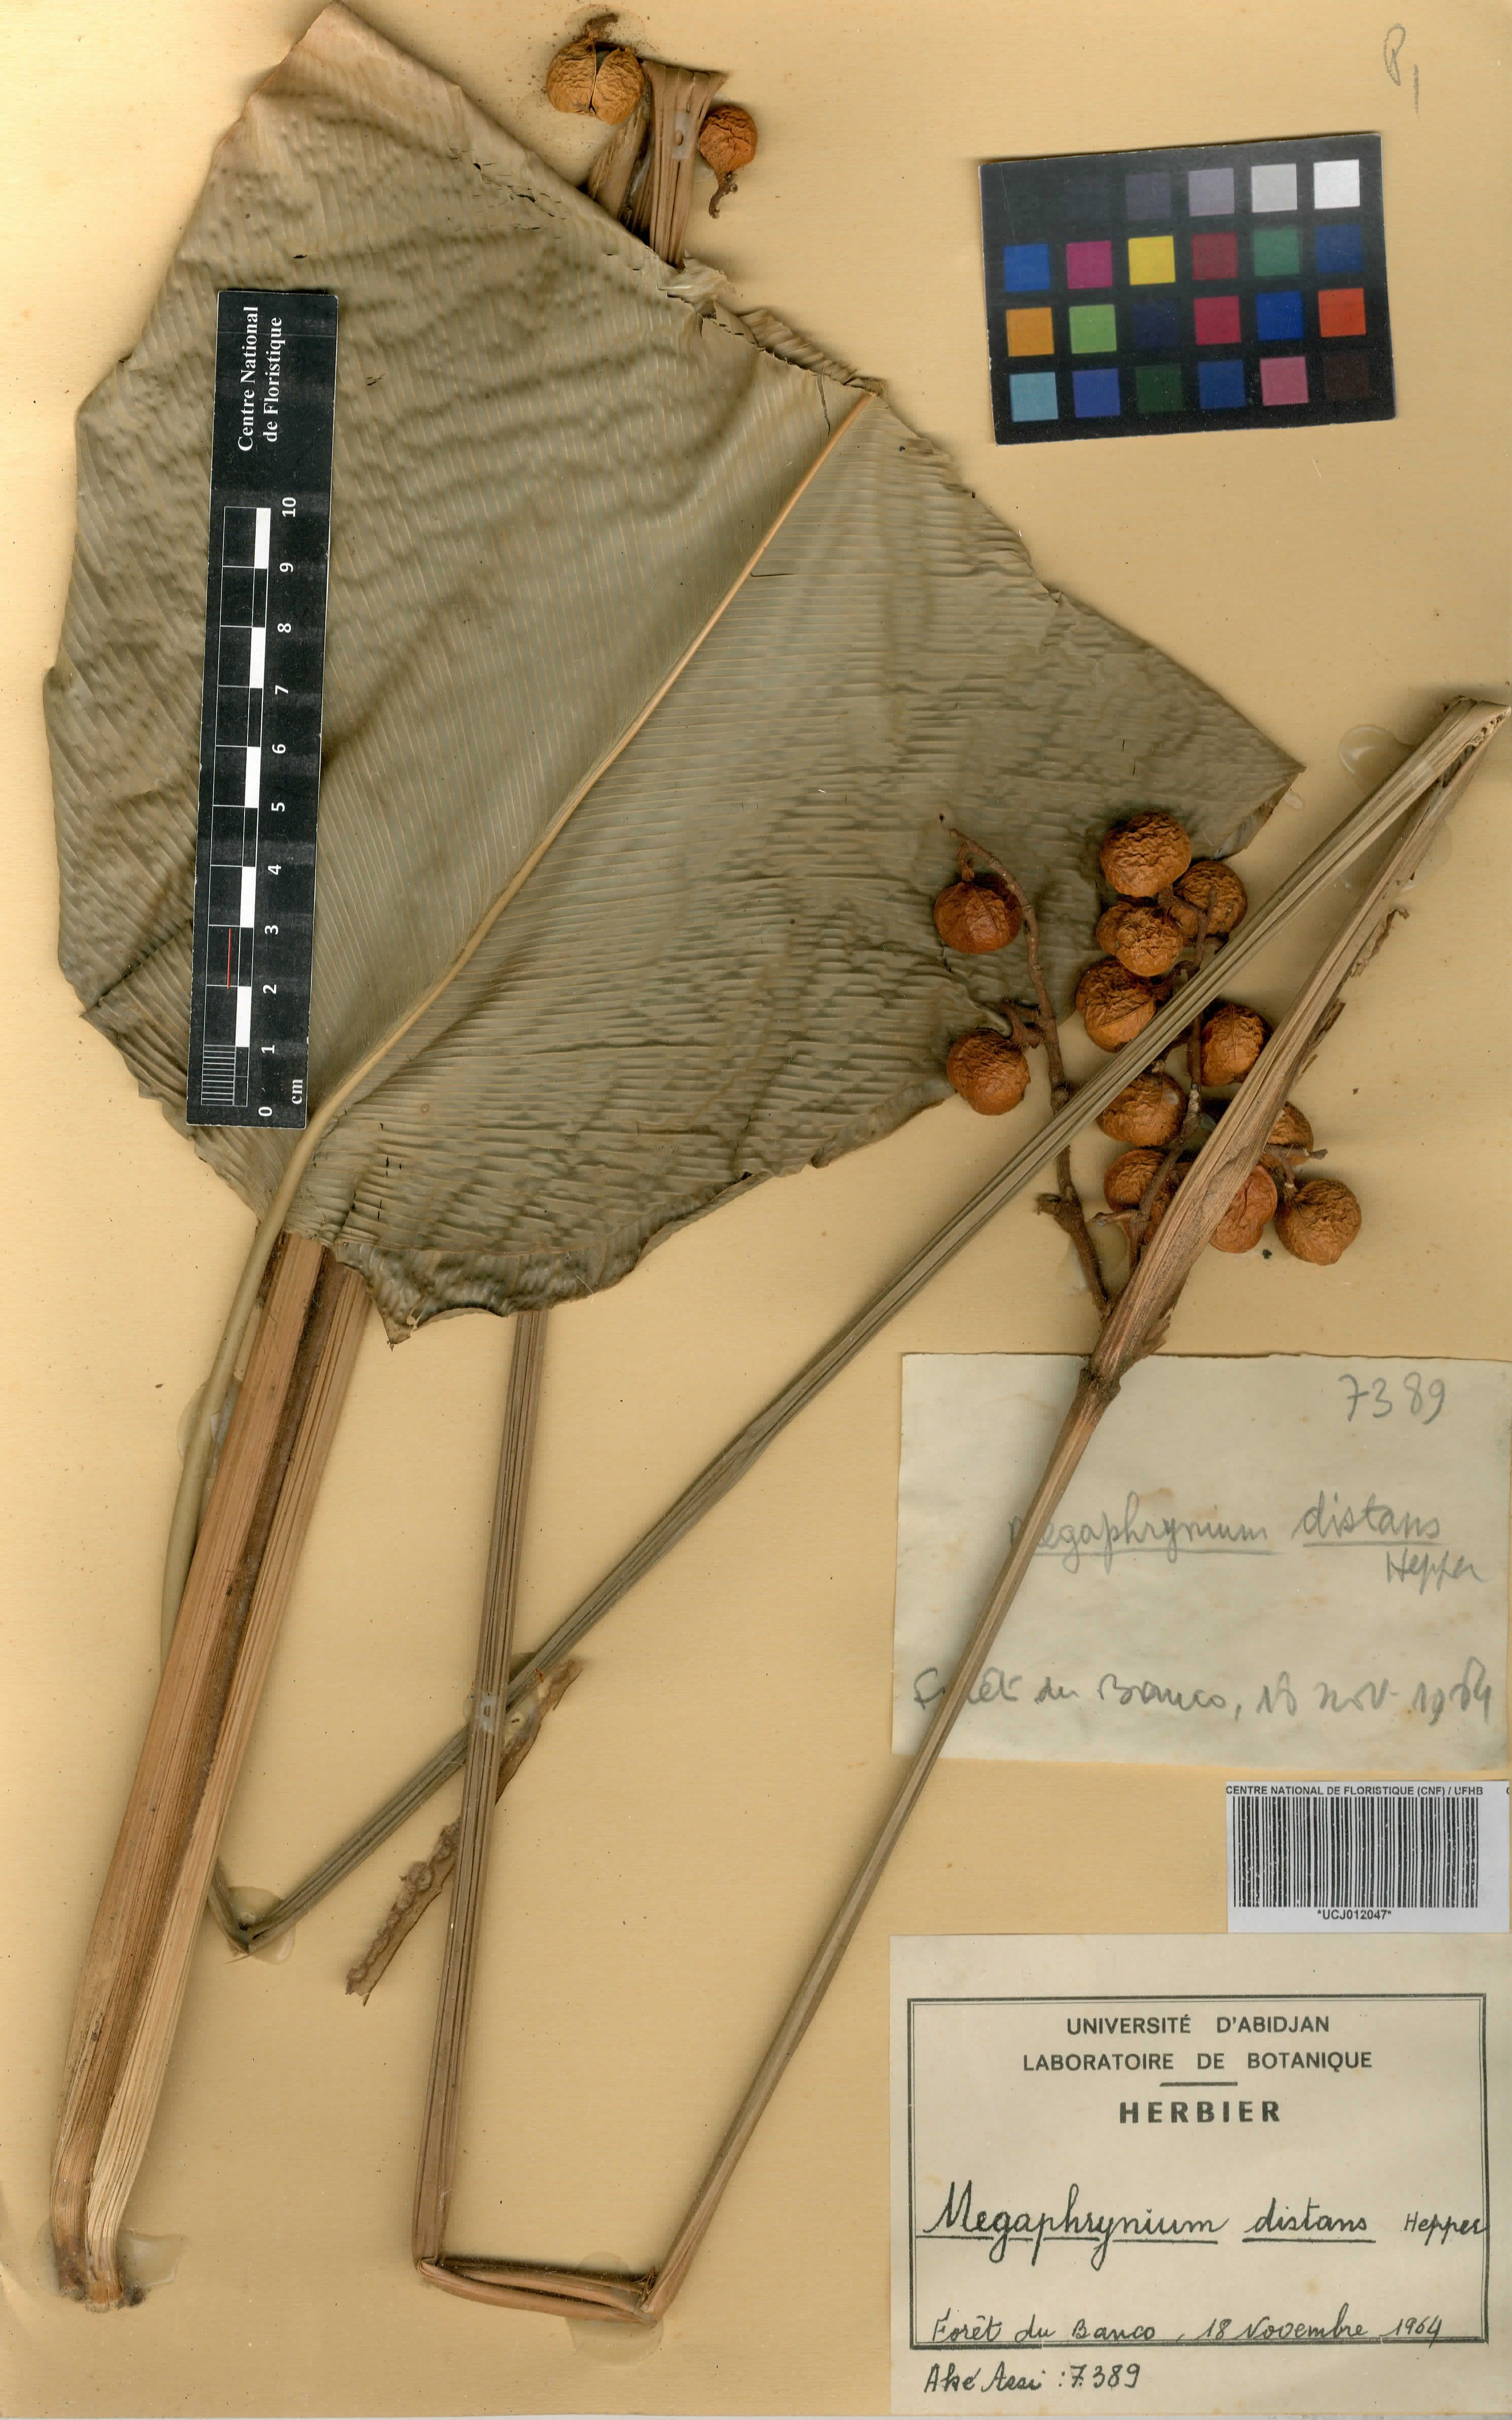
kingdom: Plantae
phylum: Tracheophyta
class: Liliopsida
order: Zingiberales
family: Marantaceae
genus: Megaphrynium
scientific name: Megaphrynium distans
